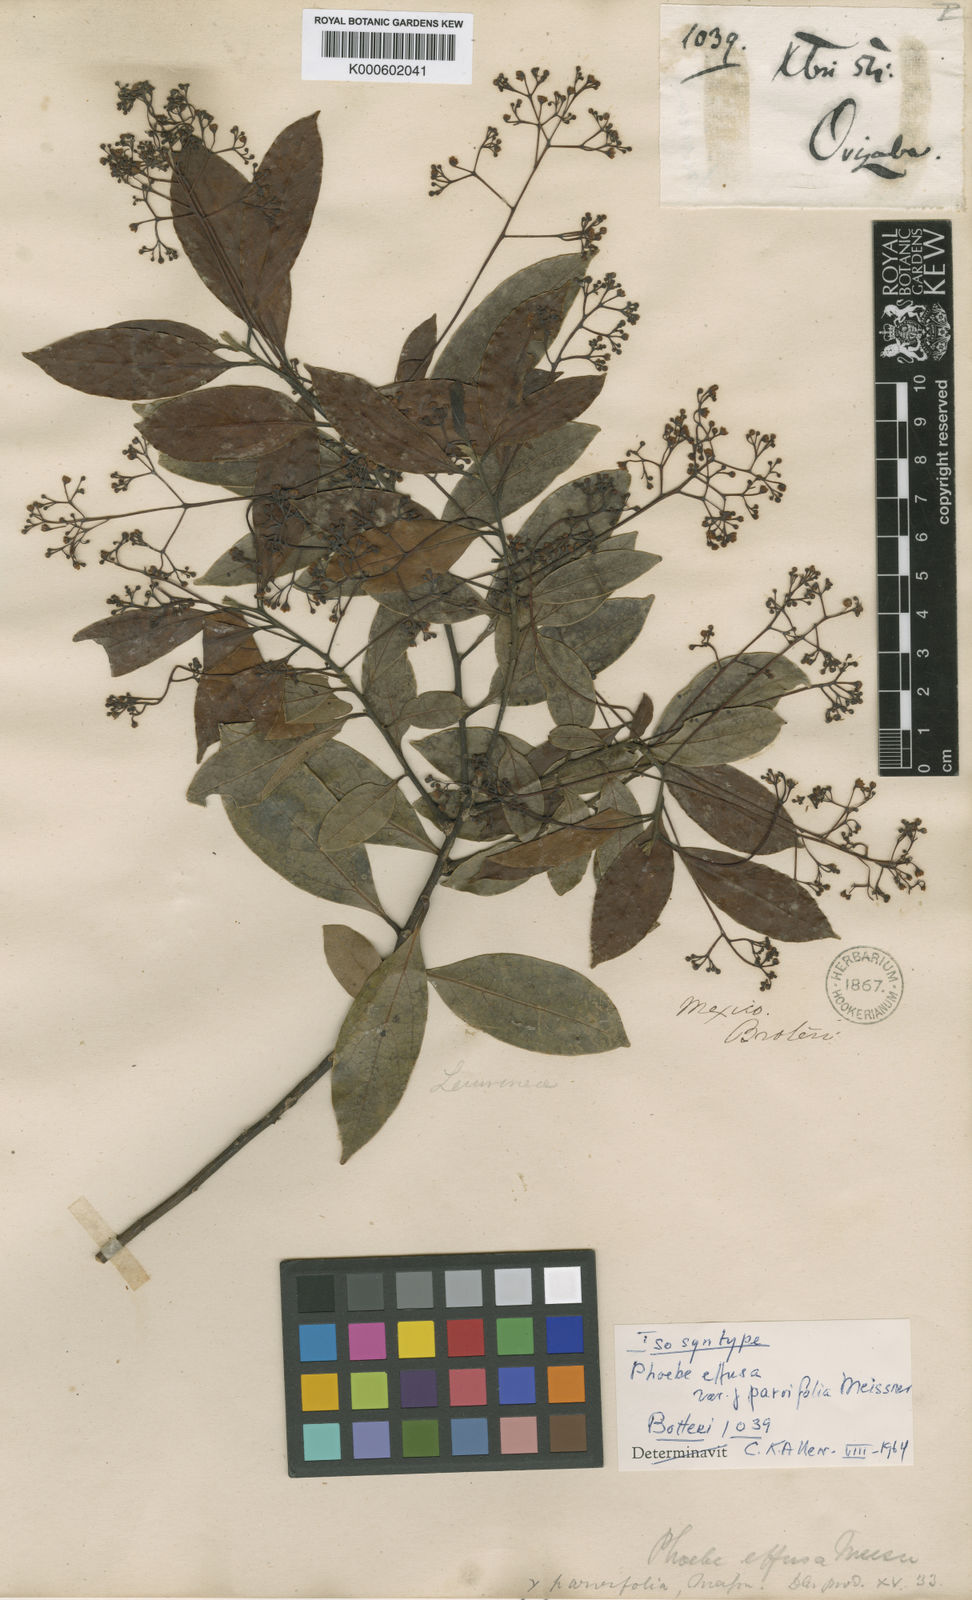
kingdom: Plantae
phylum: Tracheophyta
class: Magnoliopsida
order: Laurales
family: Lauraceae
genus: Ocotea
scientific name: Ocotea effusa
